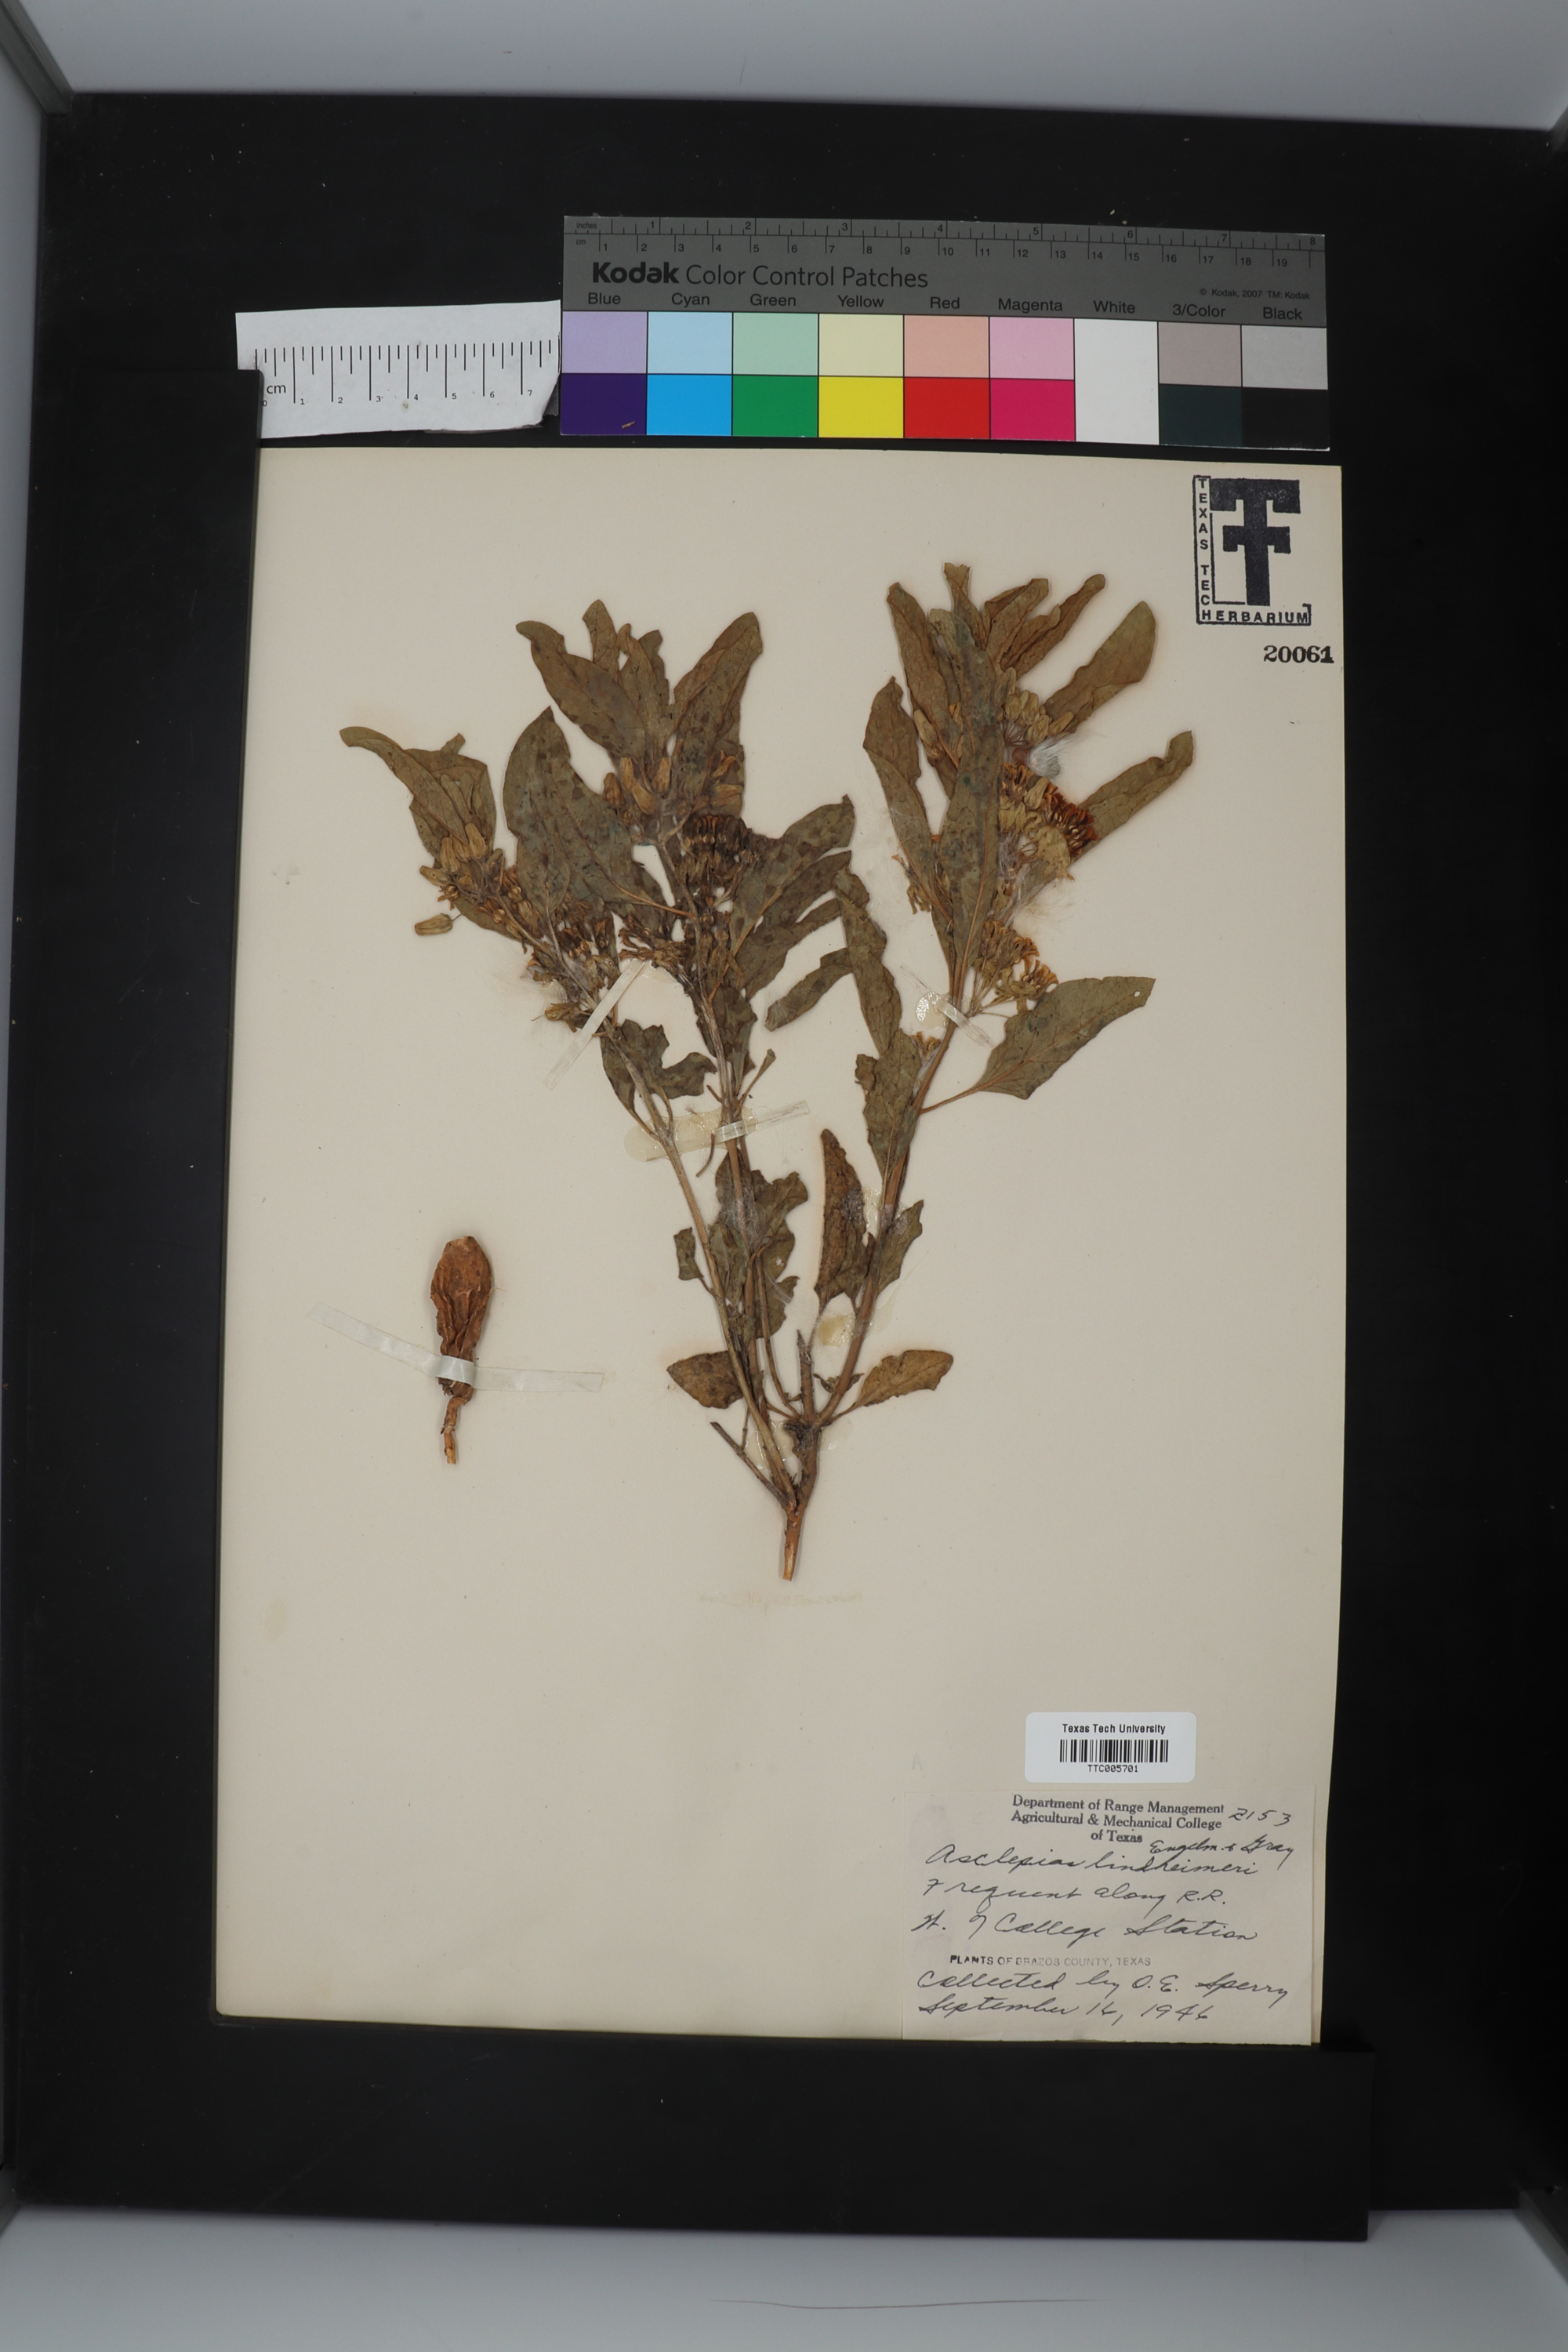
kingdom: Plantae
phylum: Tracheophyta
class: Magnoliopsida
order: Gentianales
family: Apocynaceae
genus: Asclepias
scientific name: Asclepias oenotheroides
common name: Zizotes milkweed
